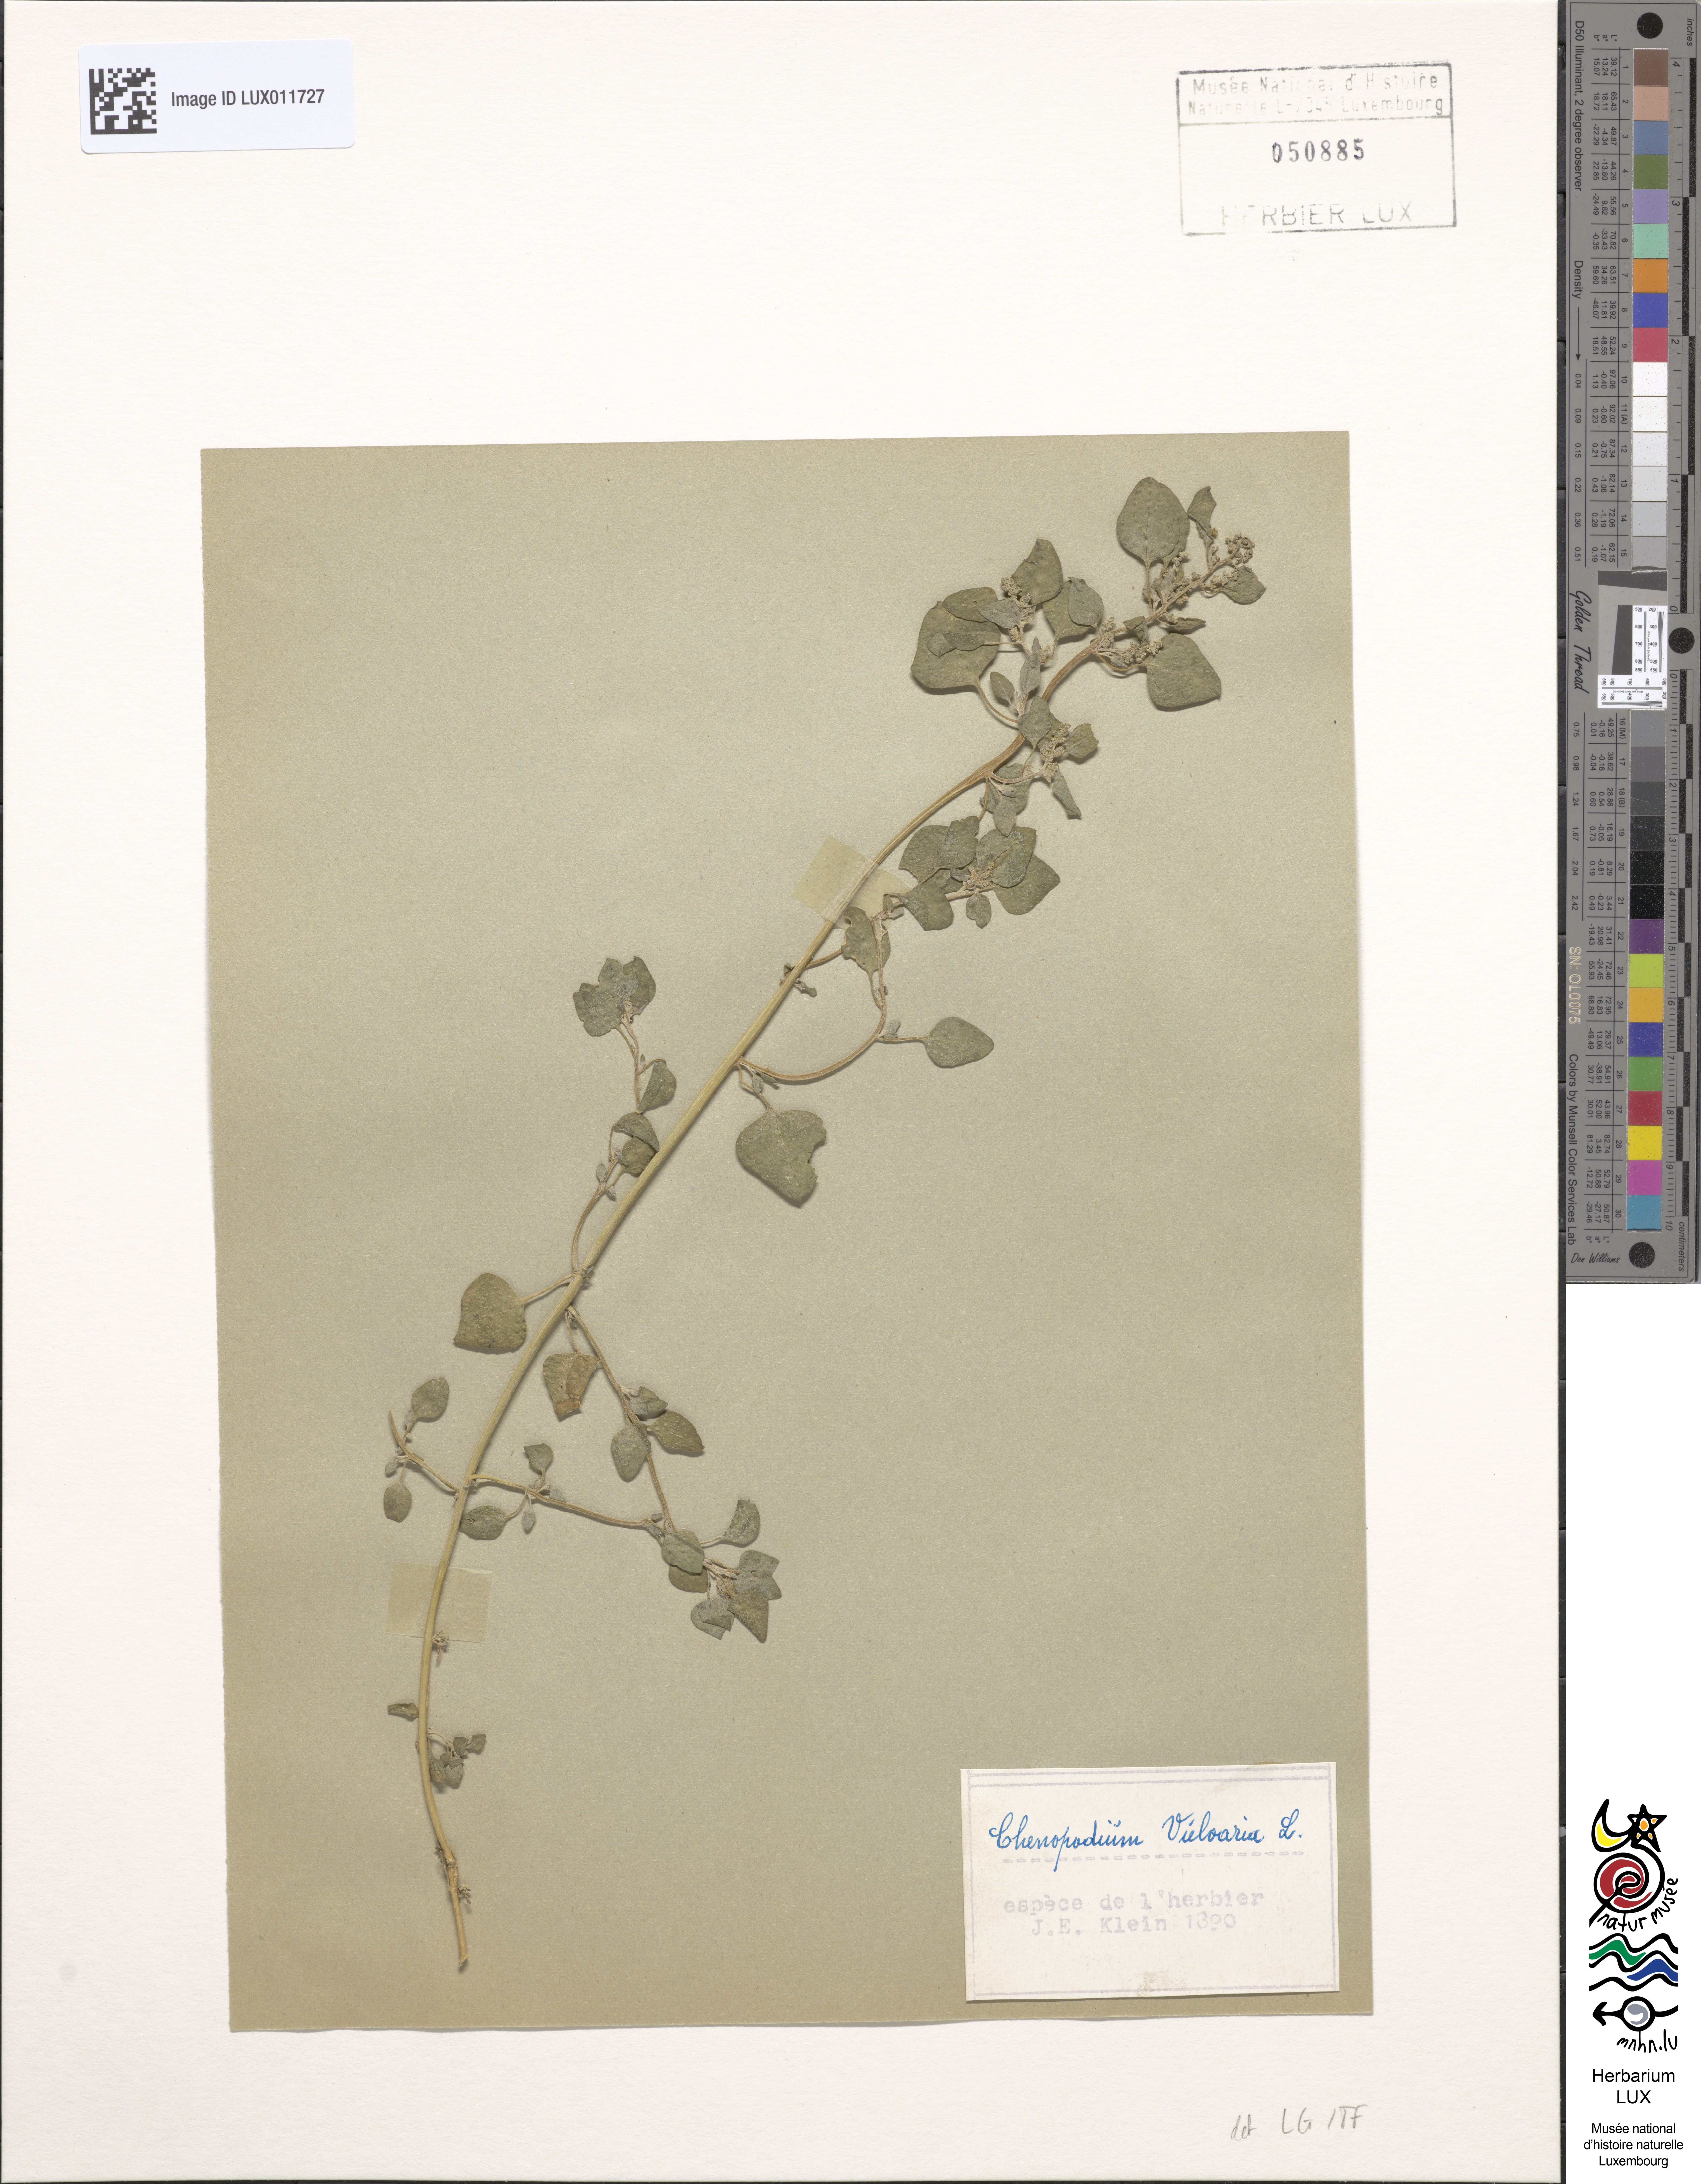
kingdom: Plantae
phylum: Tracheophyta
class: Magnoliopsida
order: Caryophyllales
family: Amaranthaceae
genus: Chenopodium
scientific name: Chenopodium vulvaria
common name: Stinking goosefoot
